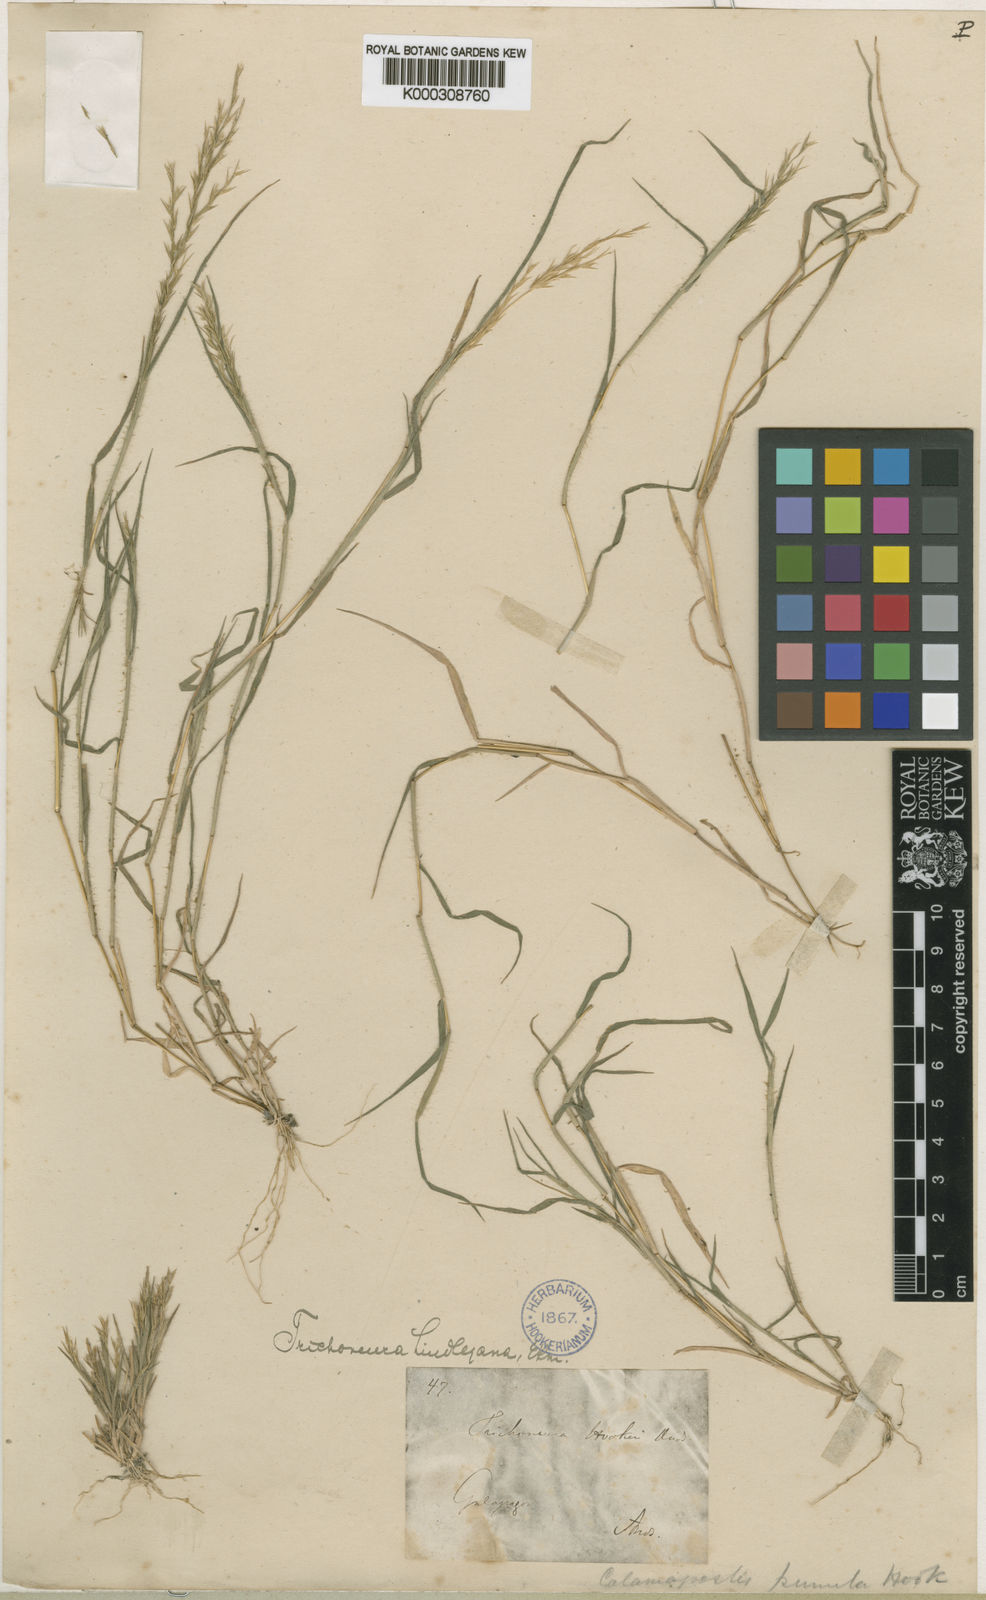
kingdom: Plantae
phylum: Tracheophyta
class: Liliopsida
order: Poales
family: Poaceae
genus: Trichoneura
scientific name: Trichoneura lindleyana
